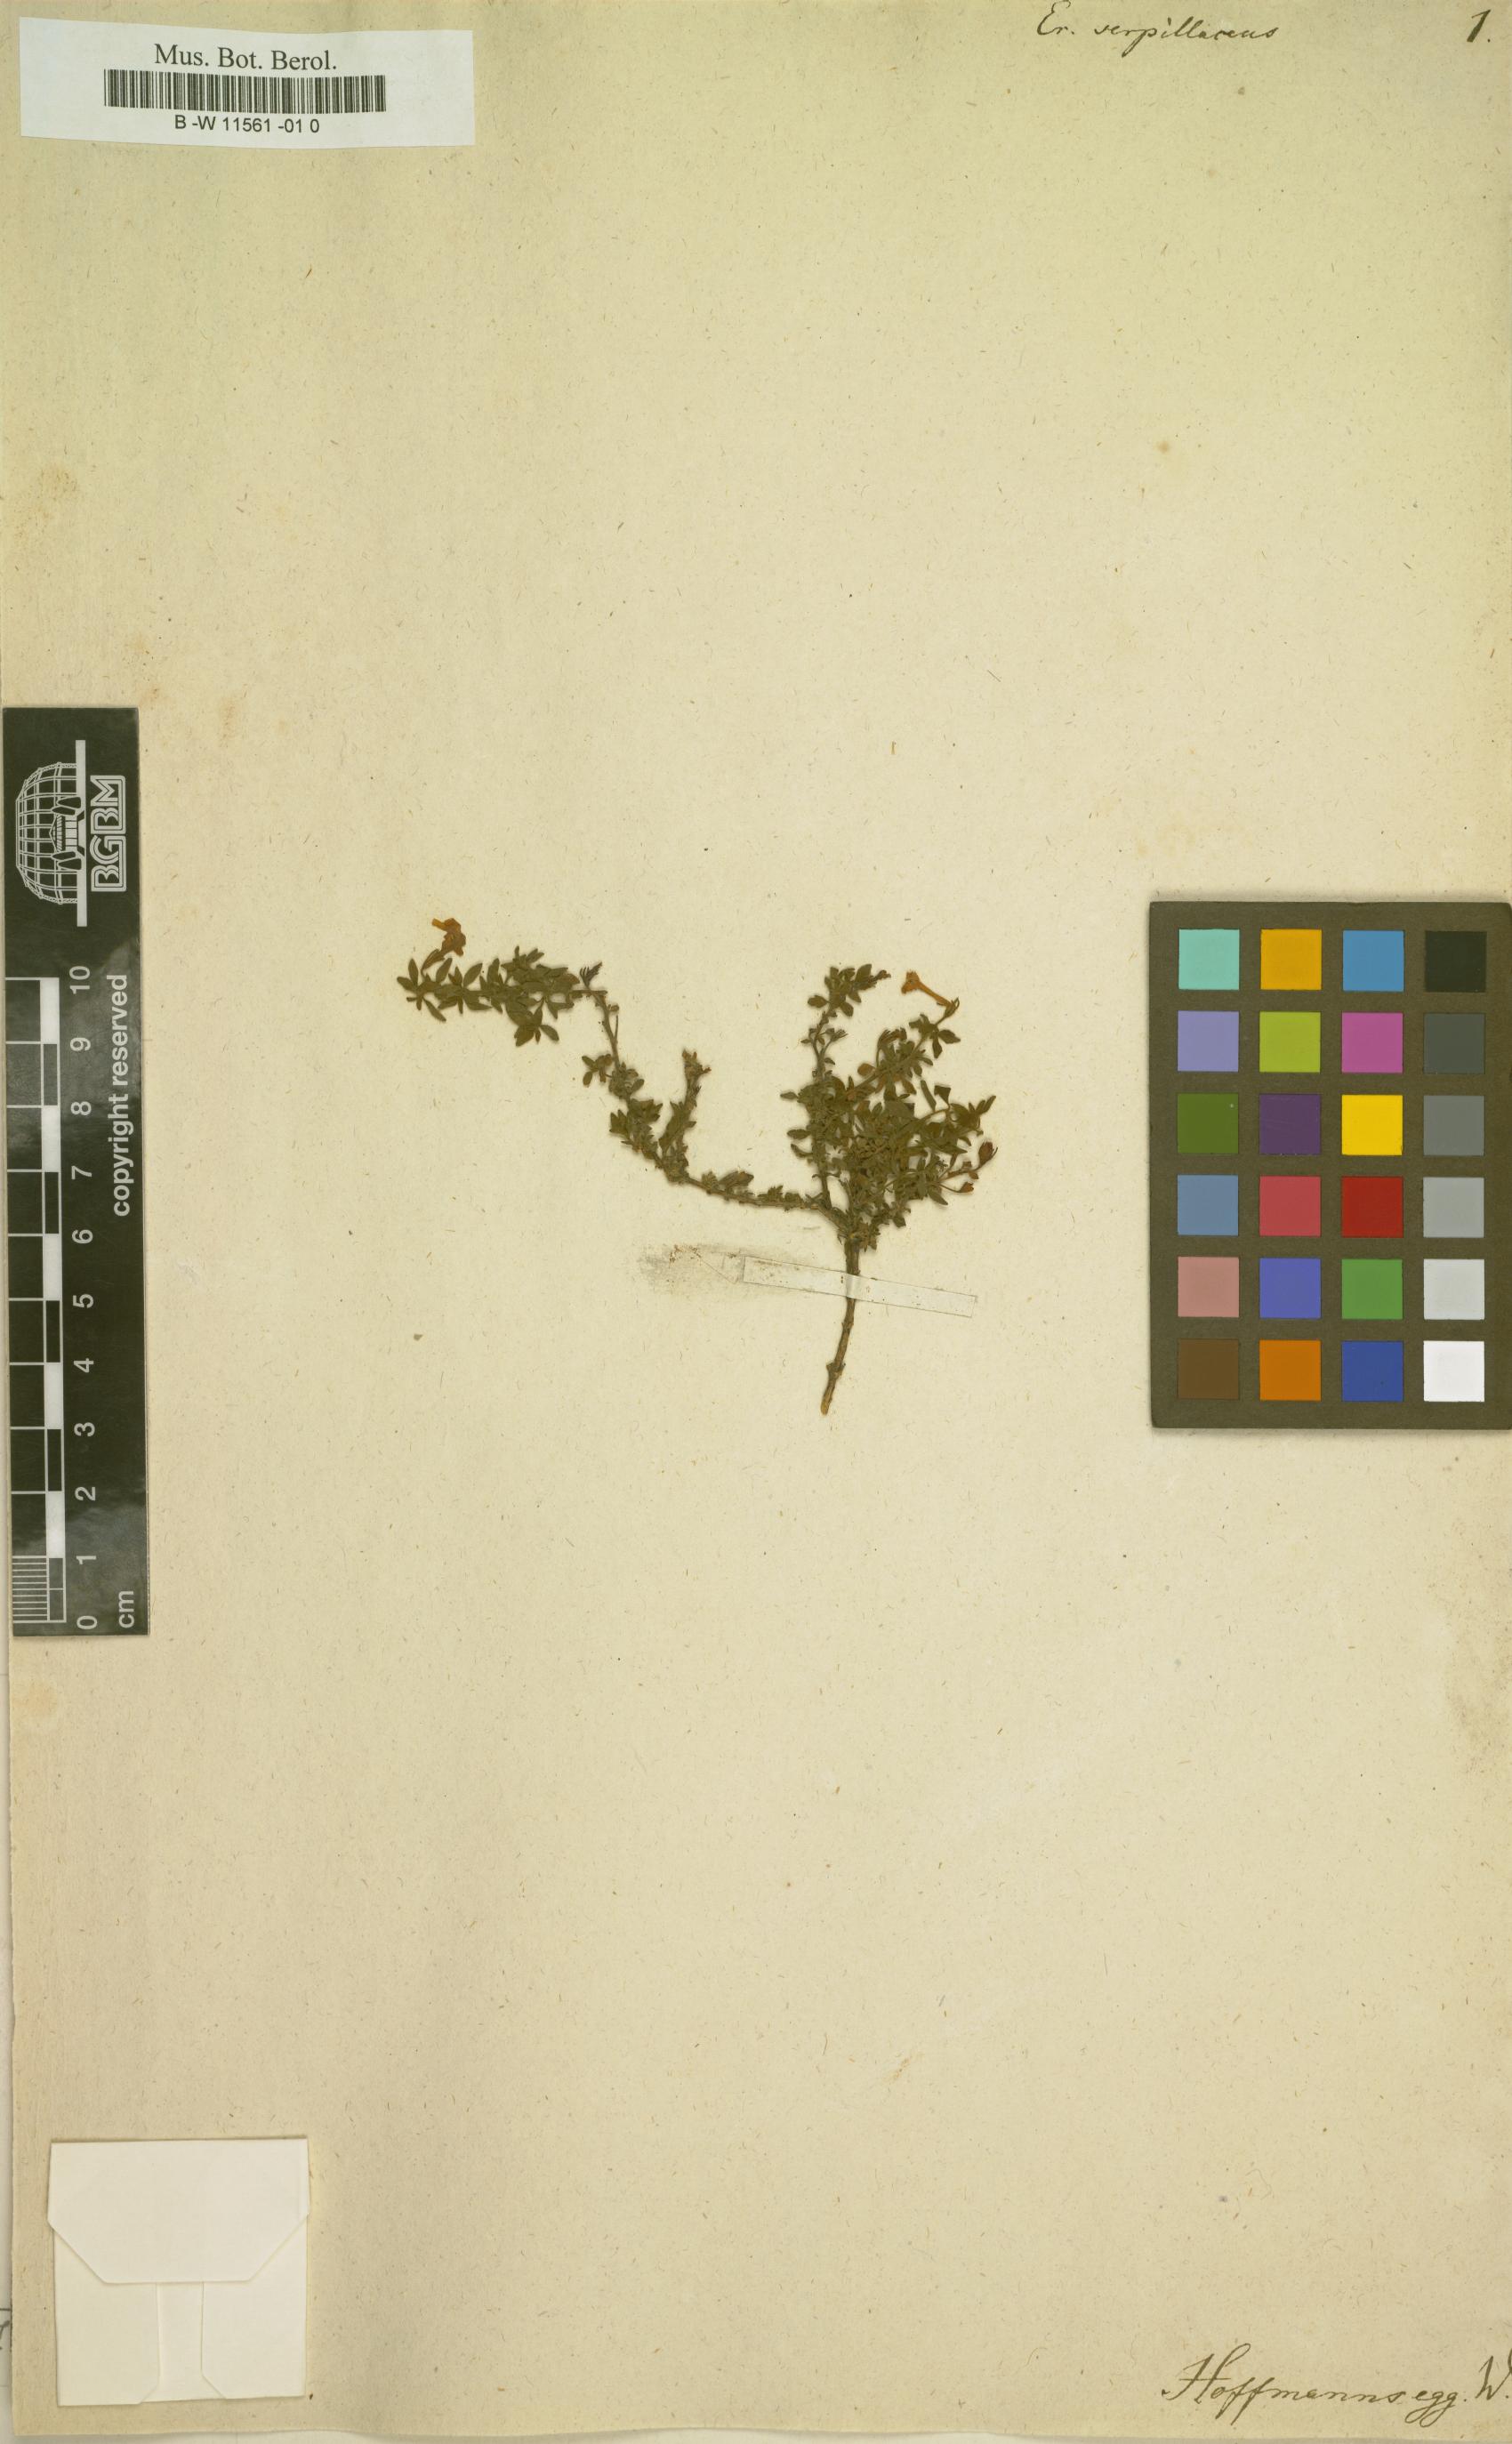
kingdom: Plantae
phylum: Tracheophyta
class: Magnoliopsida
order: Lamiales
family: Scrophulariaceae
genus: Erinus
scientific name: Erinus
